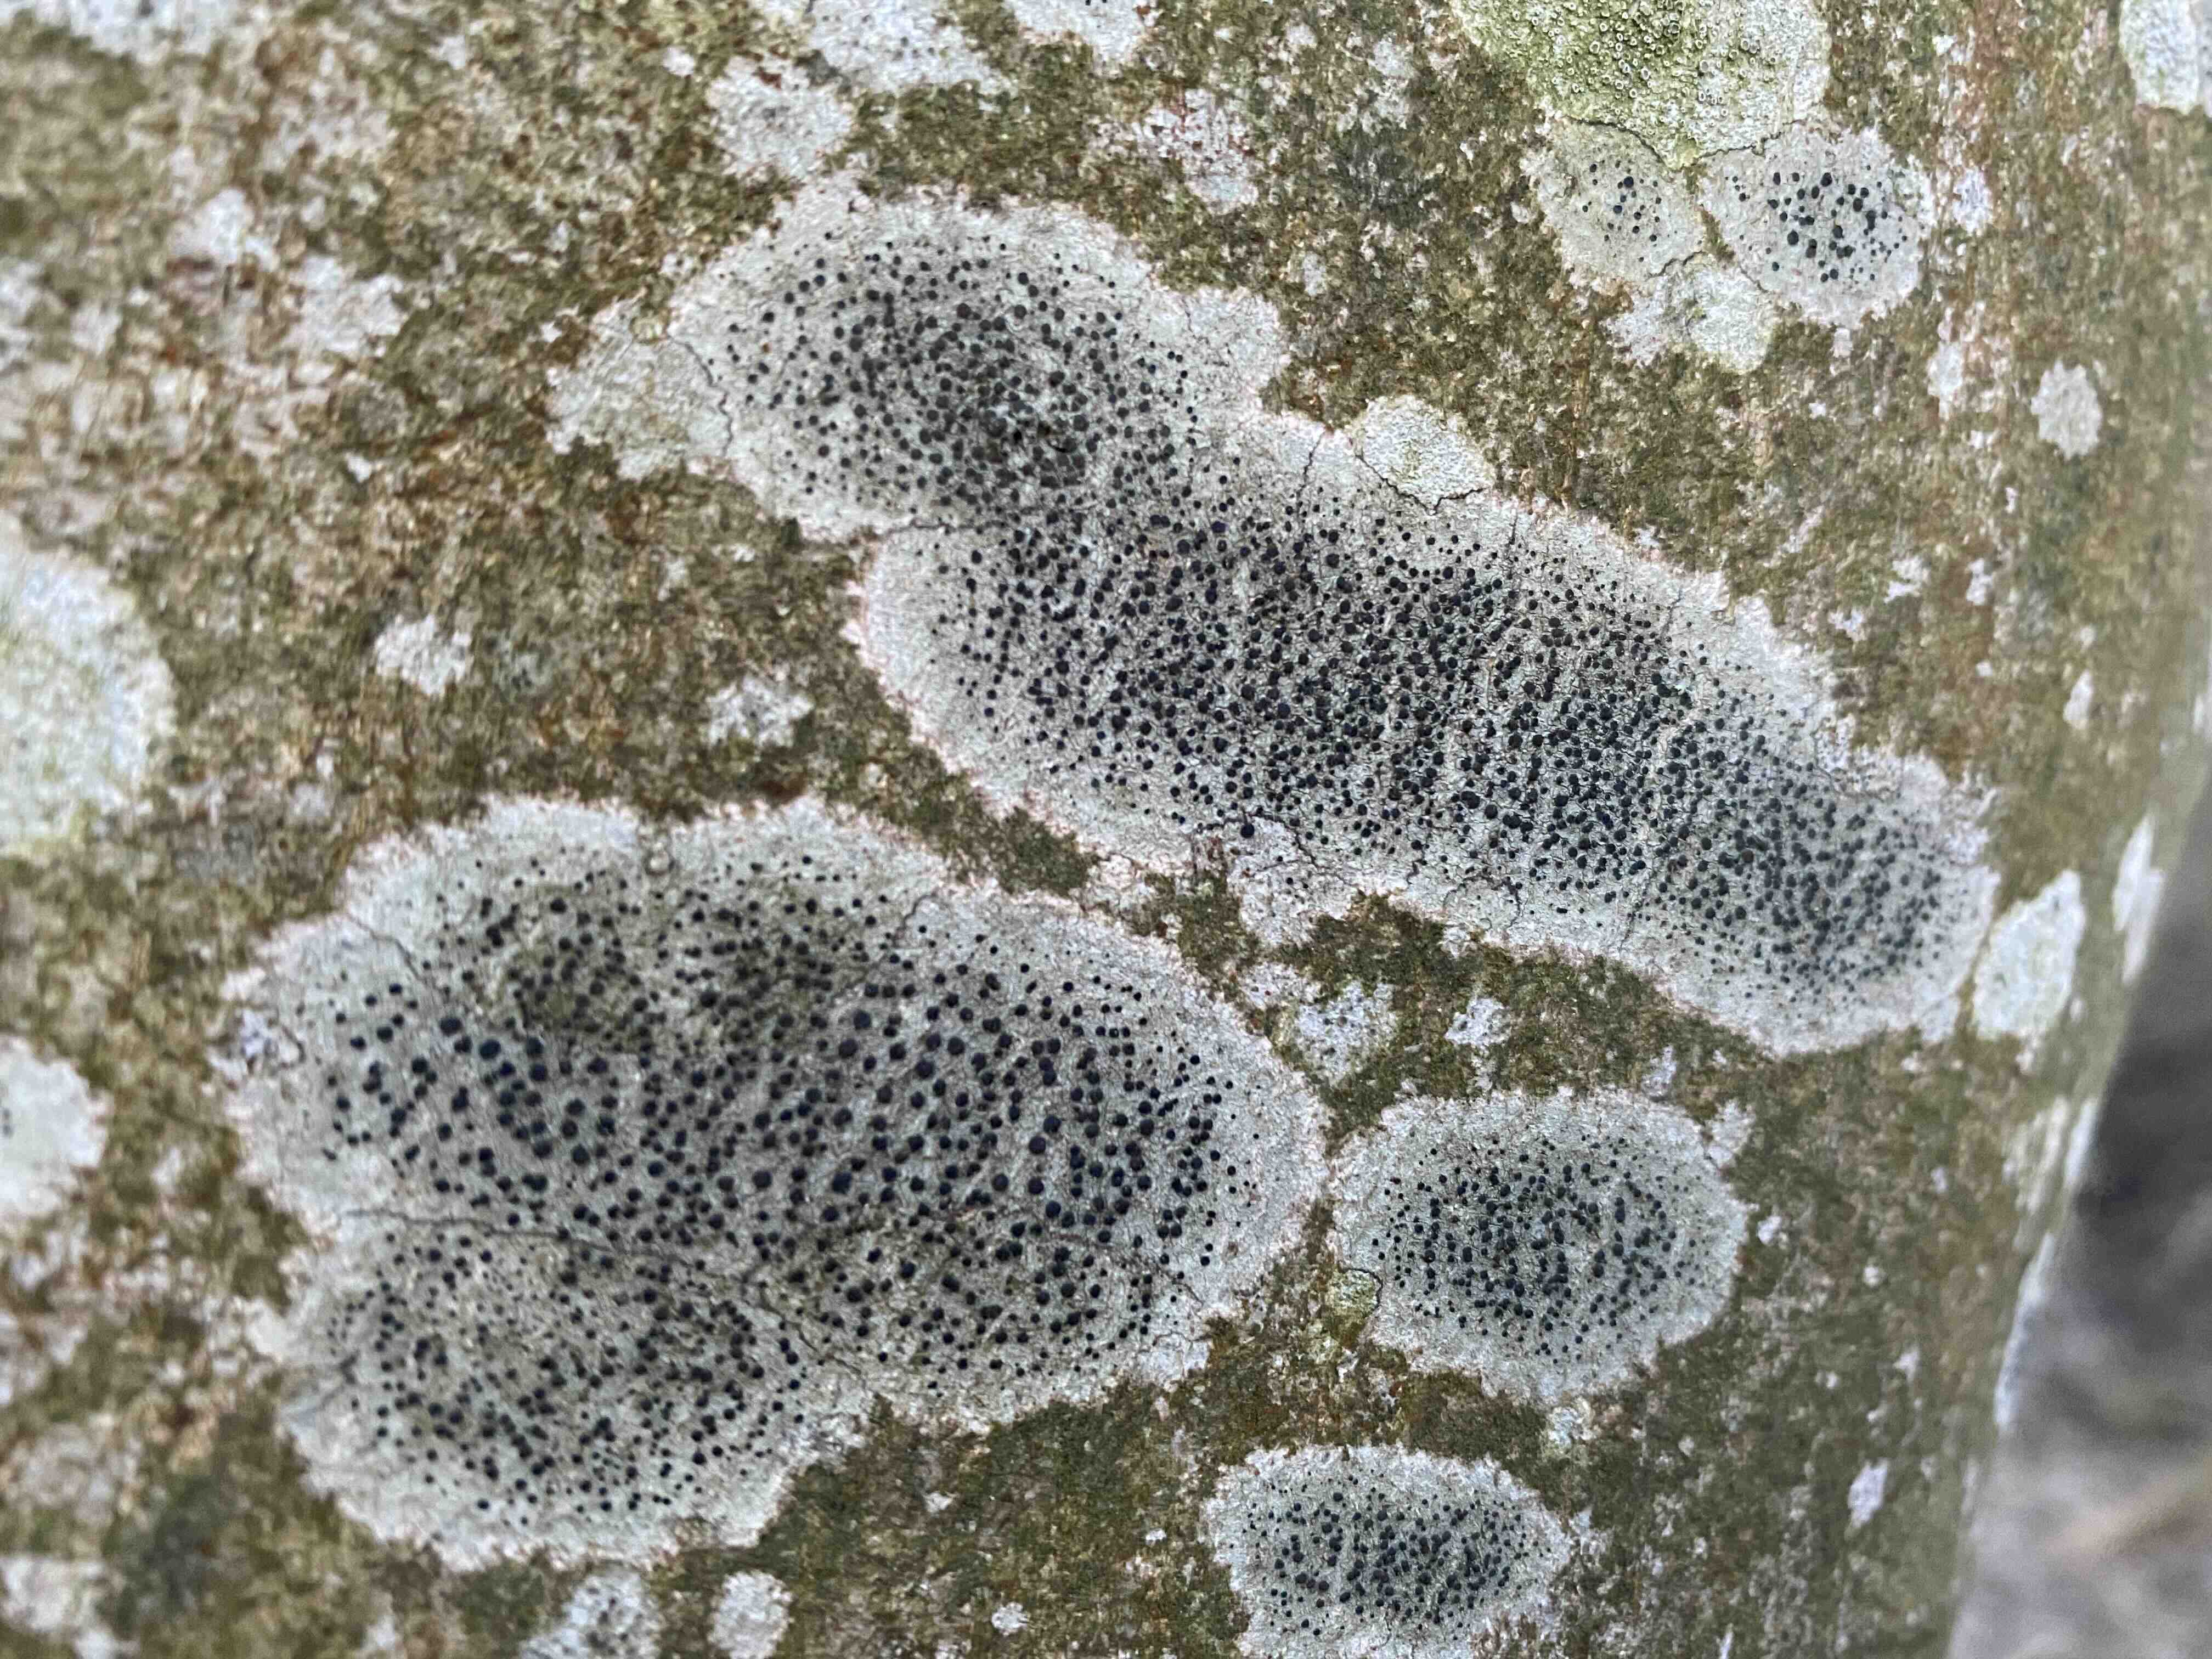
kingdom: Fungi
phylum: Ascomycota
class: Lecanoromycetes
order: Lecanorales
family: Lecanoraceae
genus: Lecidella
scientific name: Lecidella elaeochroma
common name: grågrøn skivelav
